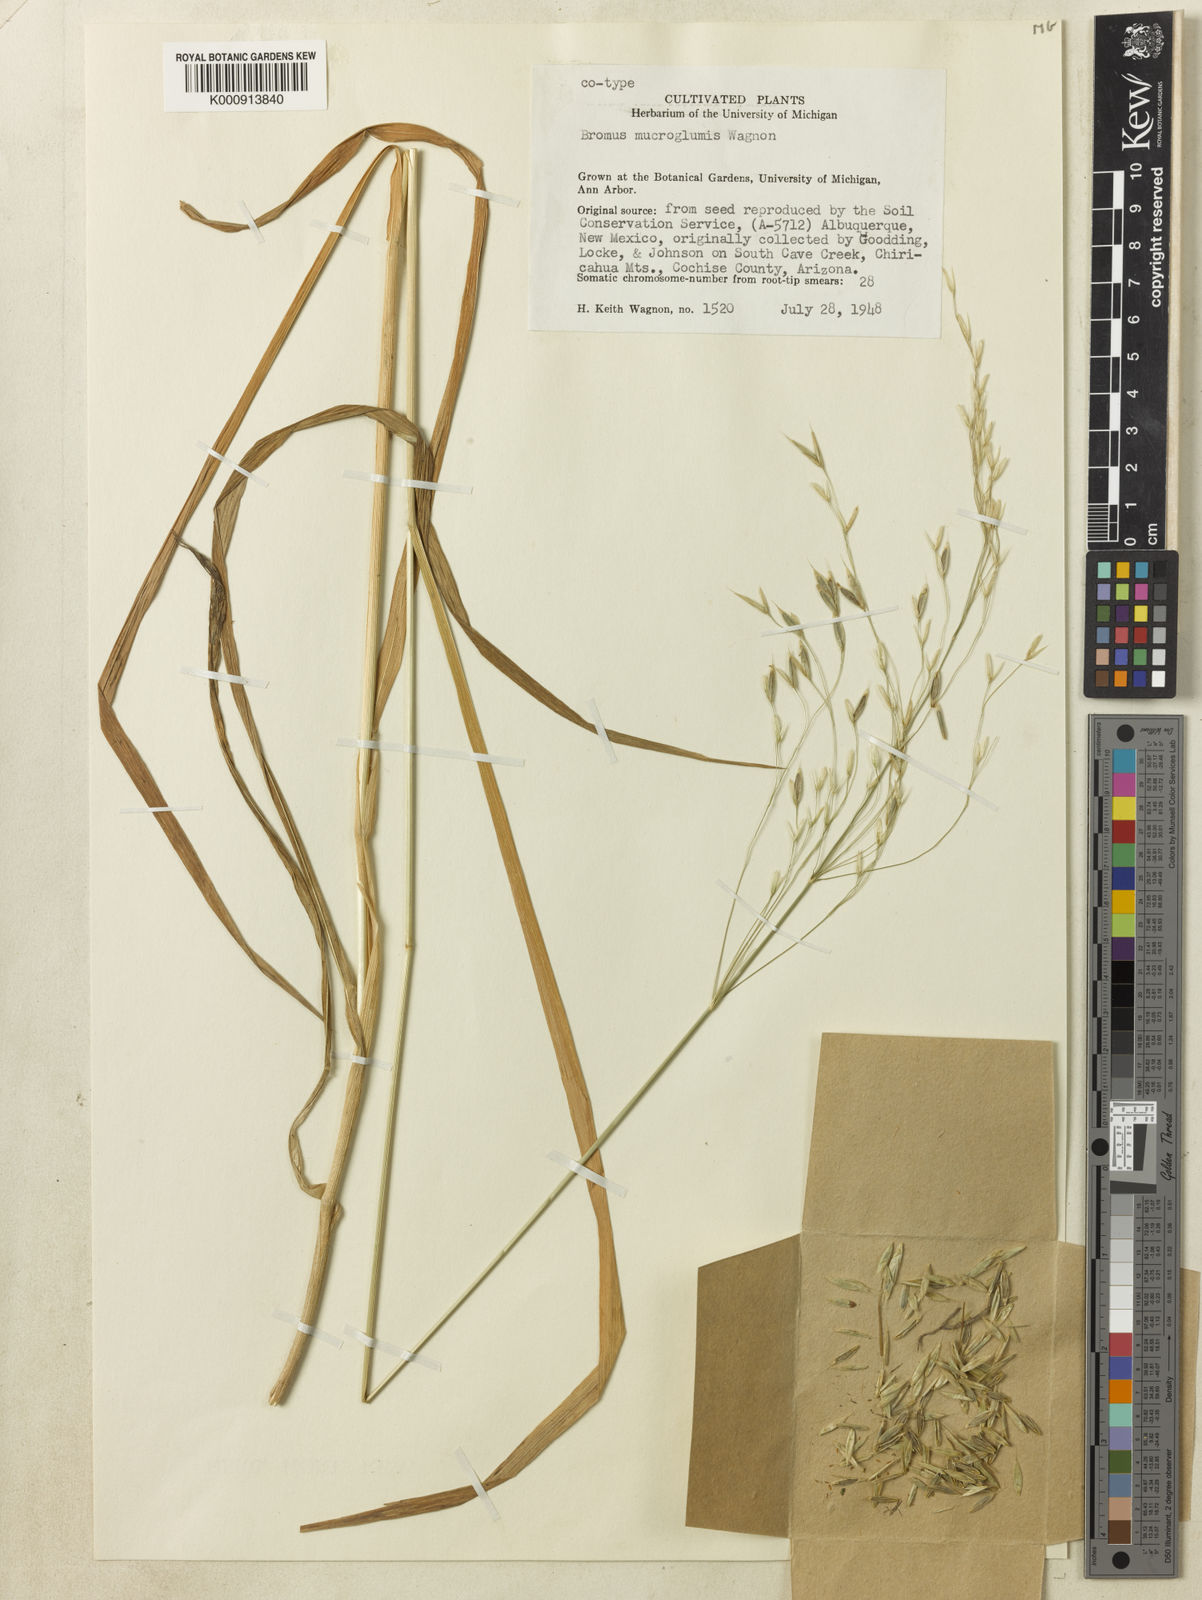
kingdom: Plantae
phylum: Tracheophyta
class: Liliopsida
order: Poales
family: Poaceae
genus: Bromus
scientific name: Bromus pseudolaevipes
